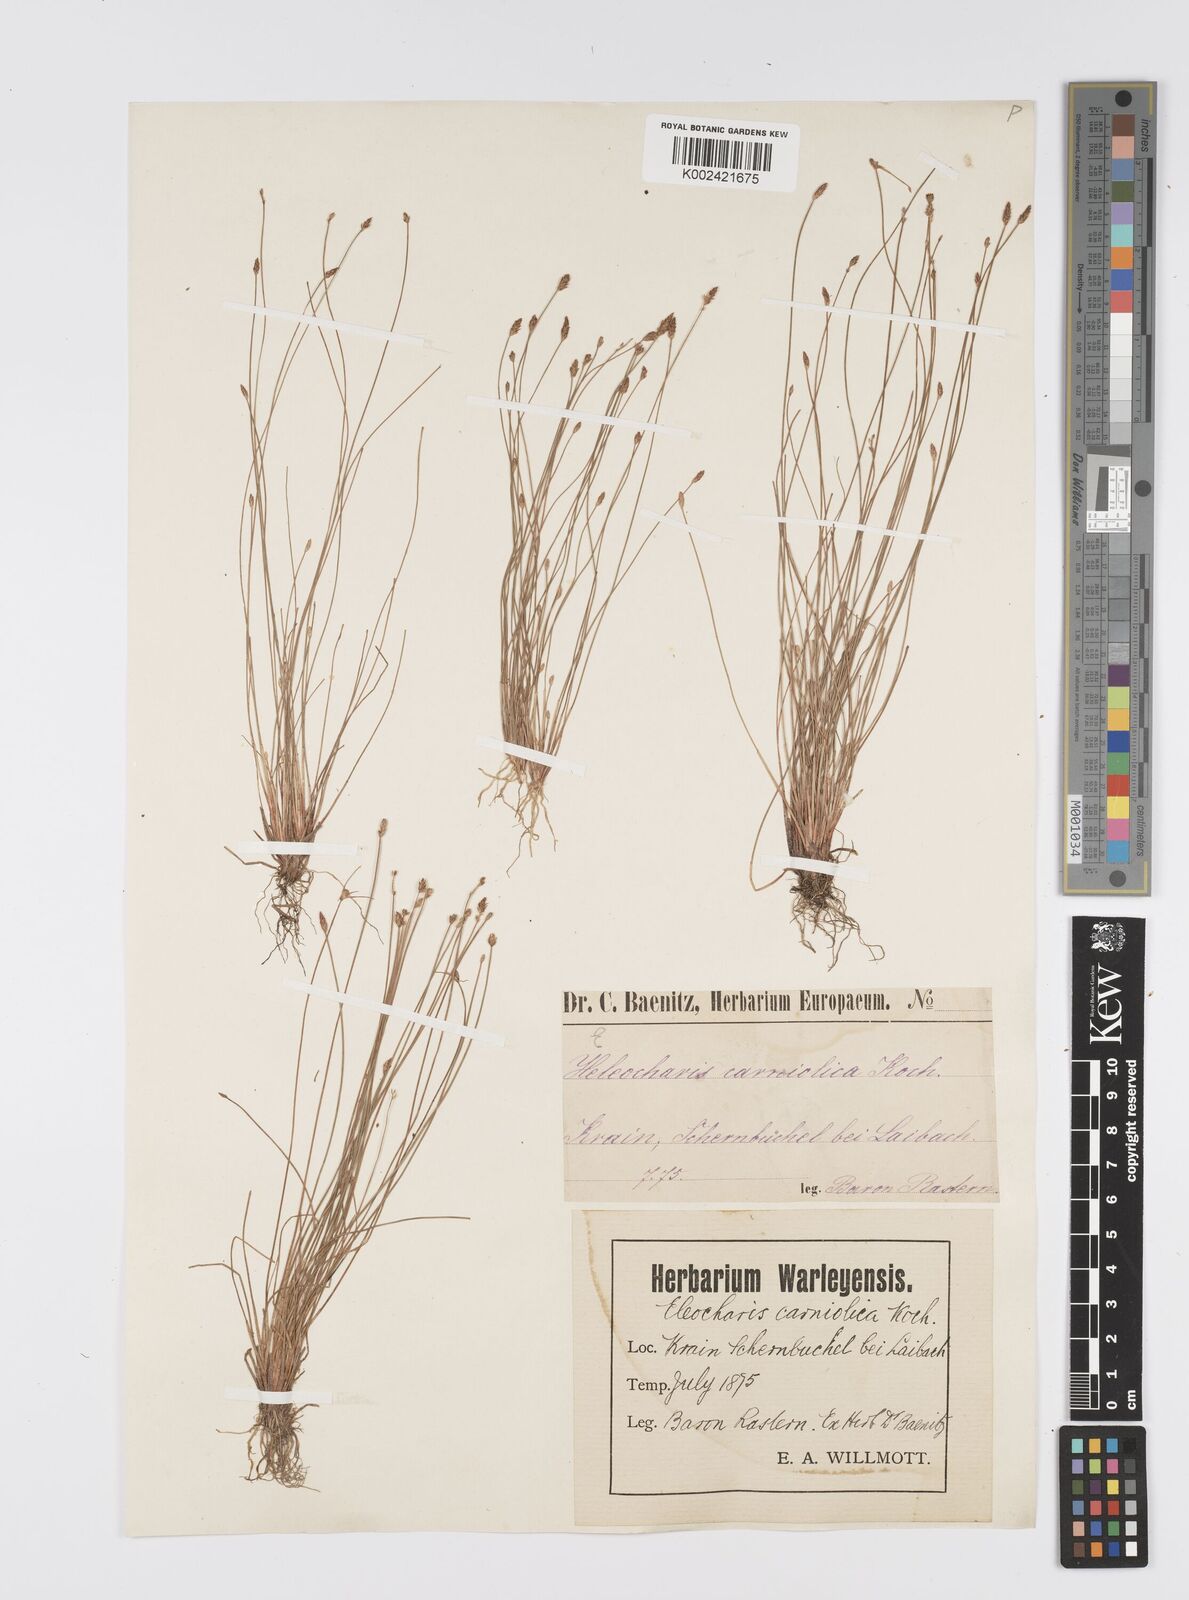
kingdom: Plantae
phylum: Tracheophyta
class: Liliopsida
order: Poales
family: Cyperaceae
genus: Eleocharis
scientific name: Eleocharis carniolica
